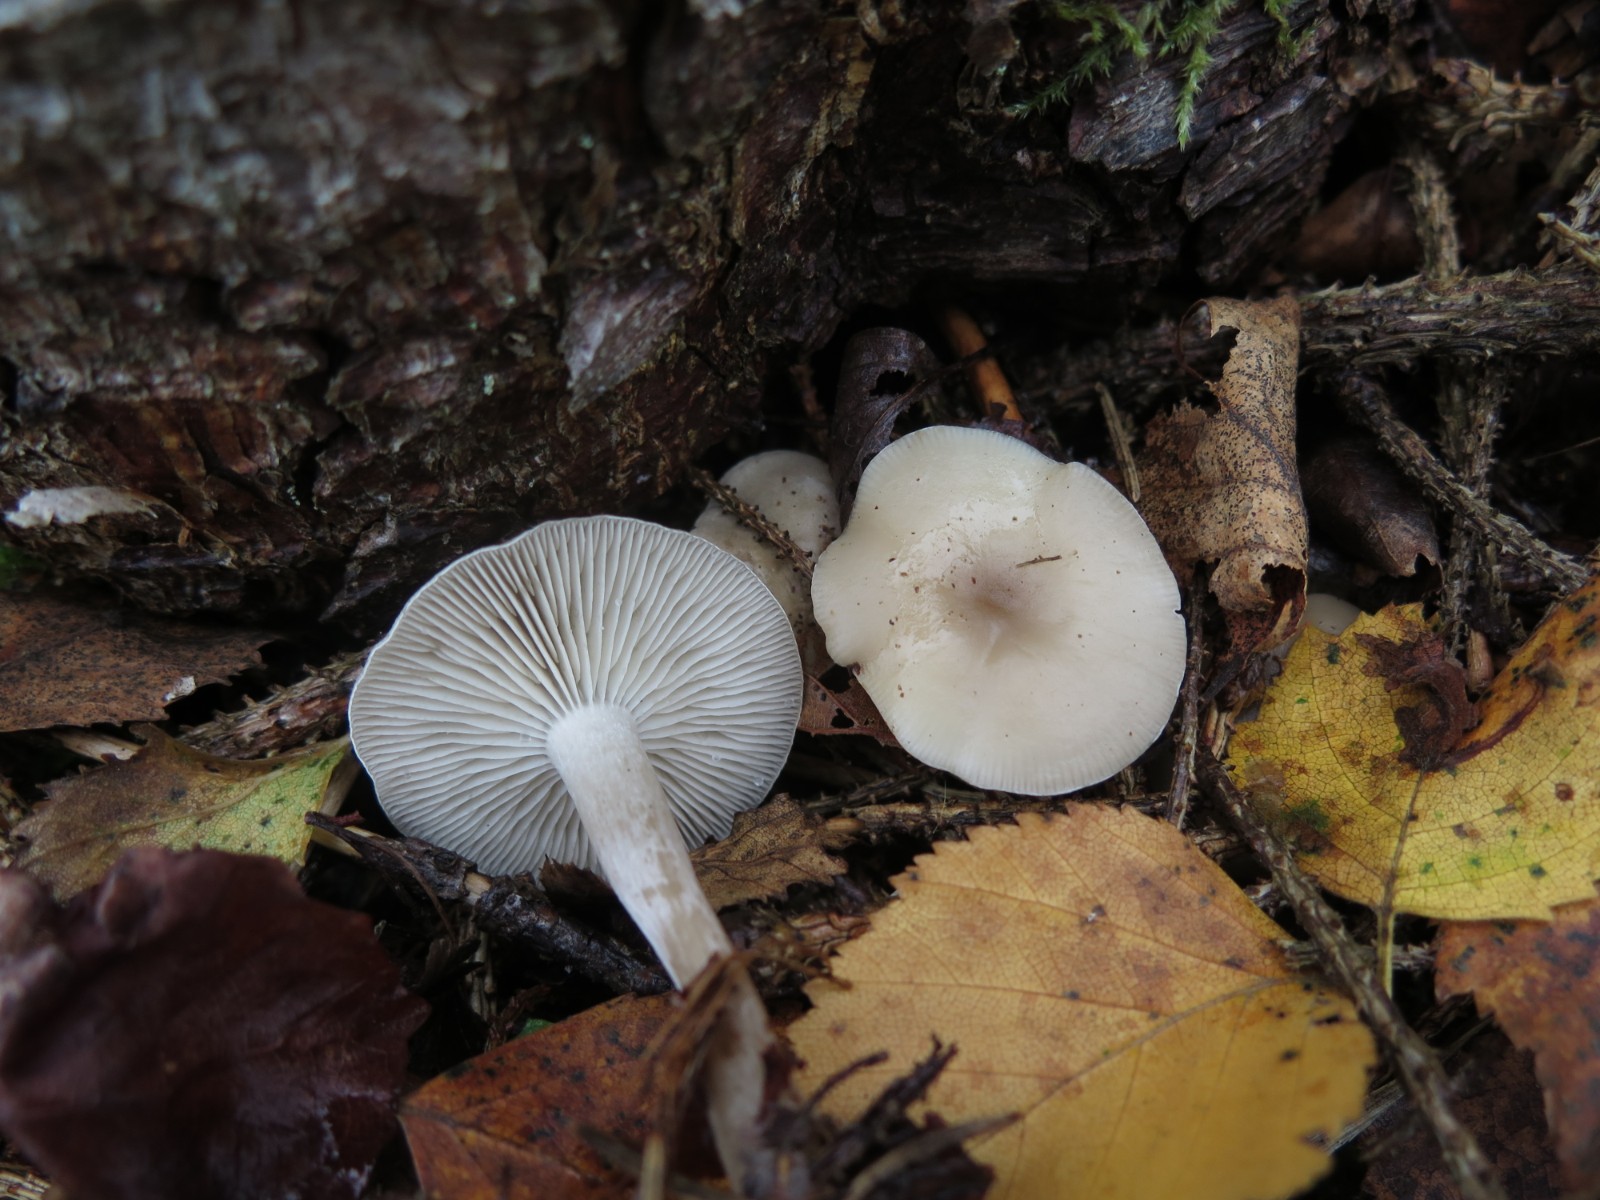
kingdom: Fungi
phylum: Basidiomycota
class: Agaricomycetes
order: Agaricales
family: Tricholomataceae
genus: Clitocybe
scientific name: Clitocybe
